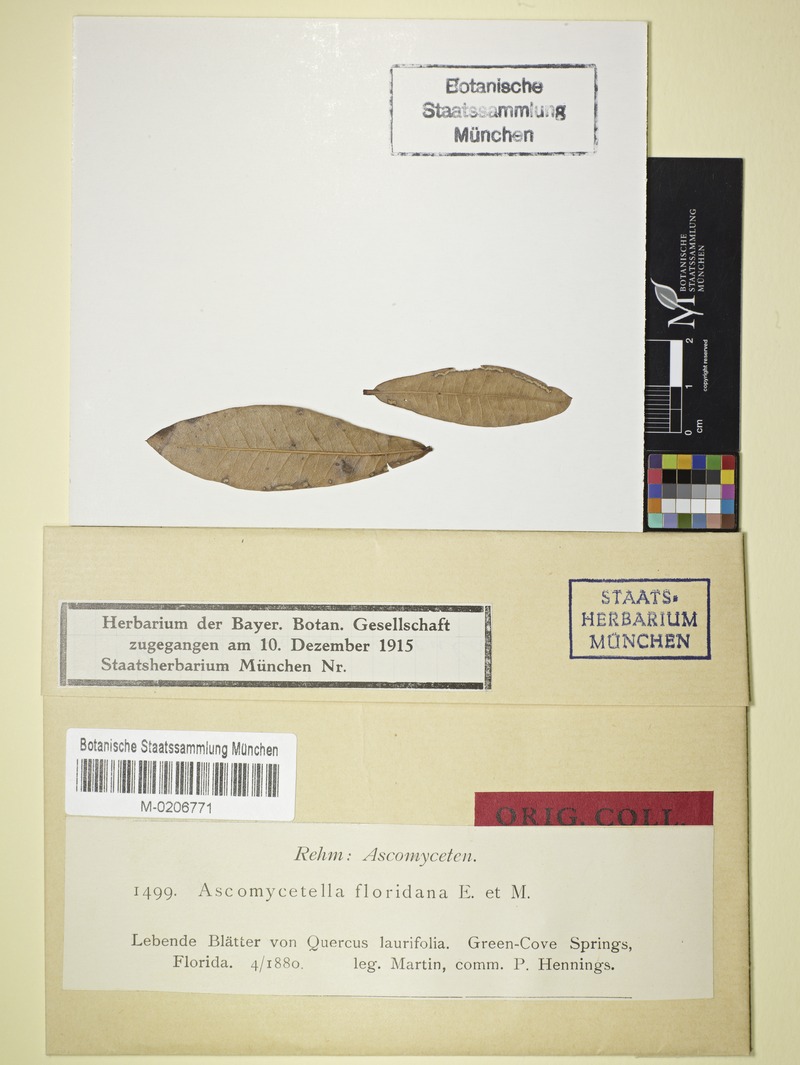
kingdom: Fungi
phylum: Ascomycota
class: Leotiomycetes
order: Helotiales
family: Ascocorticiaceae
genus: Ascosorus
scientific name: Ascosorus floridanus
